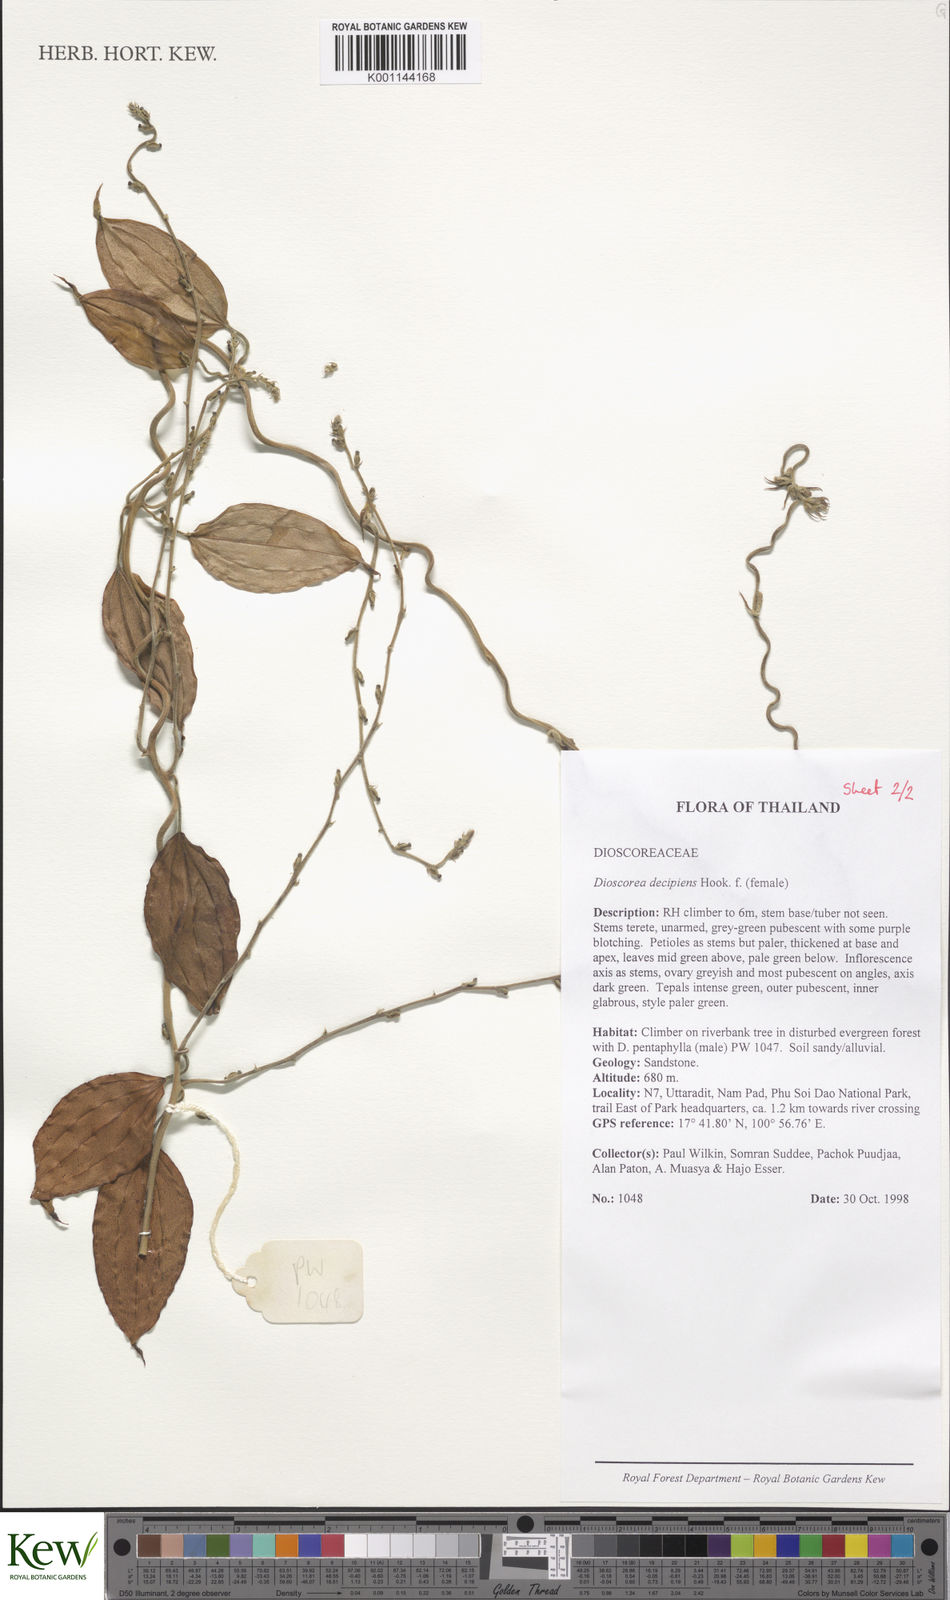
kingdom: Plantae
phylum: Tracheophyta
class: Liliopsida
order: Dioscoreales
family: Dioscoreaceae
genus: Dioscorea
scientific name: Dioscorea decipiens
